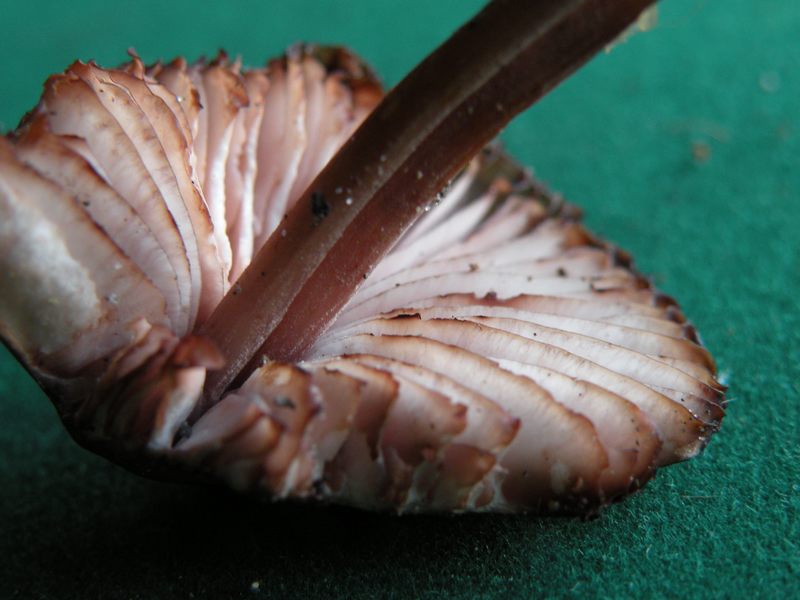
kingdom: Fungi
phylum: Basidiomycota
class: Agaricomycetes
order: Agaricales
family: Mycenaceae
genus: Mycena
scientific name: Mycena haematopus
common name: blødende huesvamp
